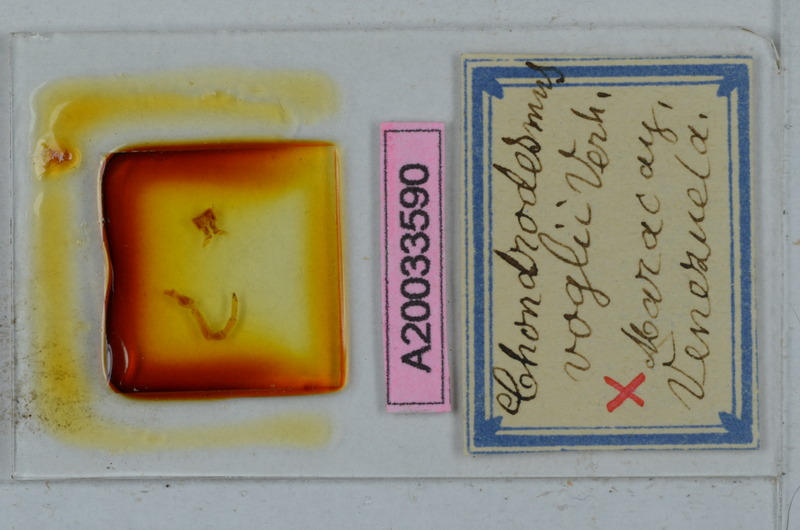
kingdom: Animalia
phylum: Arthropoda
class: Diplopoda
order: Polydesmida
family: Chelodesmidae
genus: Chondrodesmus
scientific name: Chondrodesmus voglii
